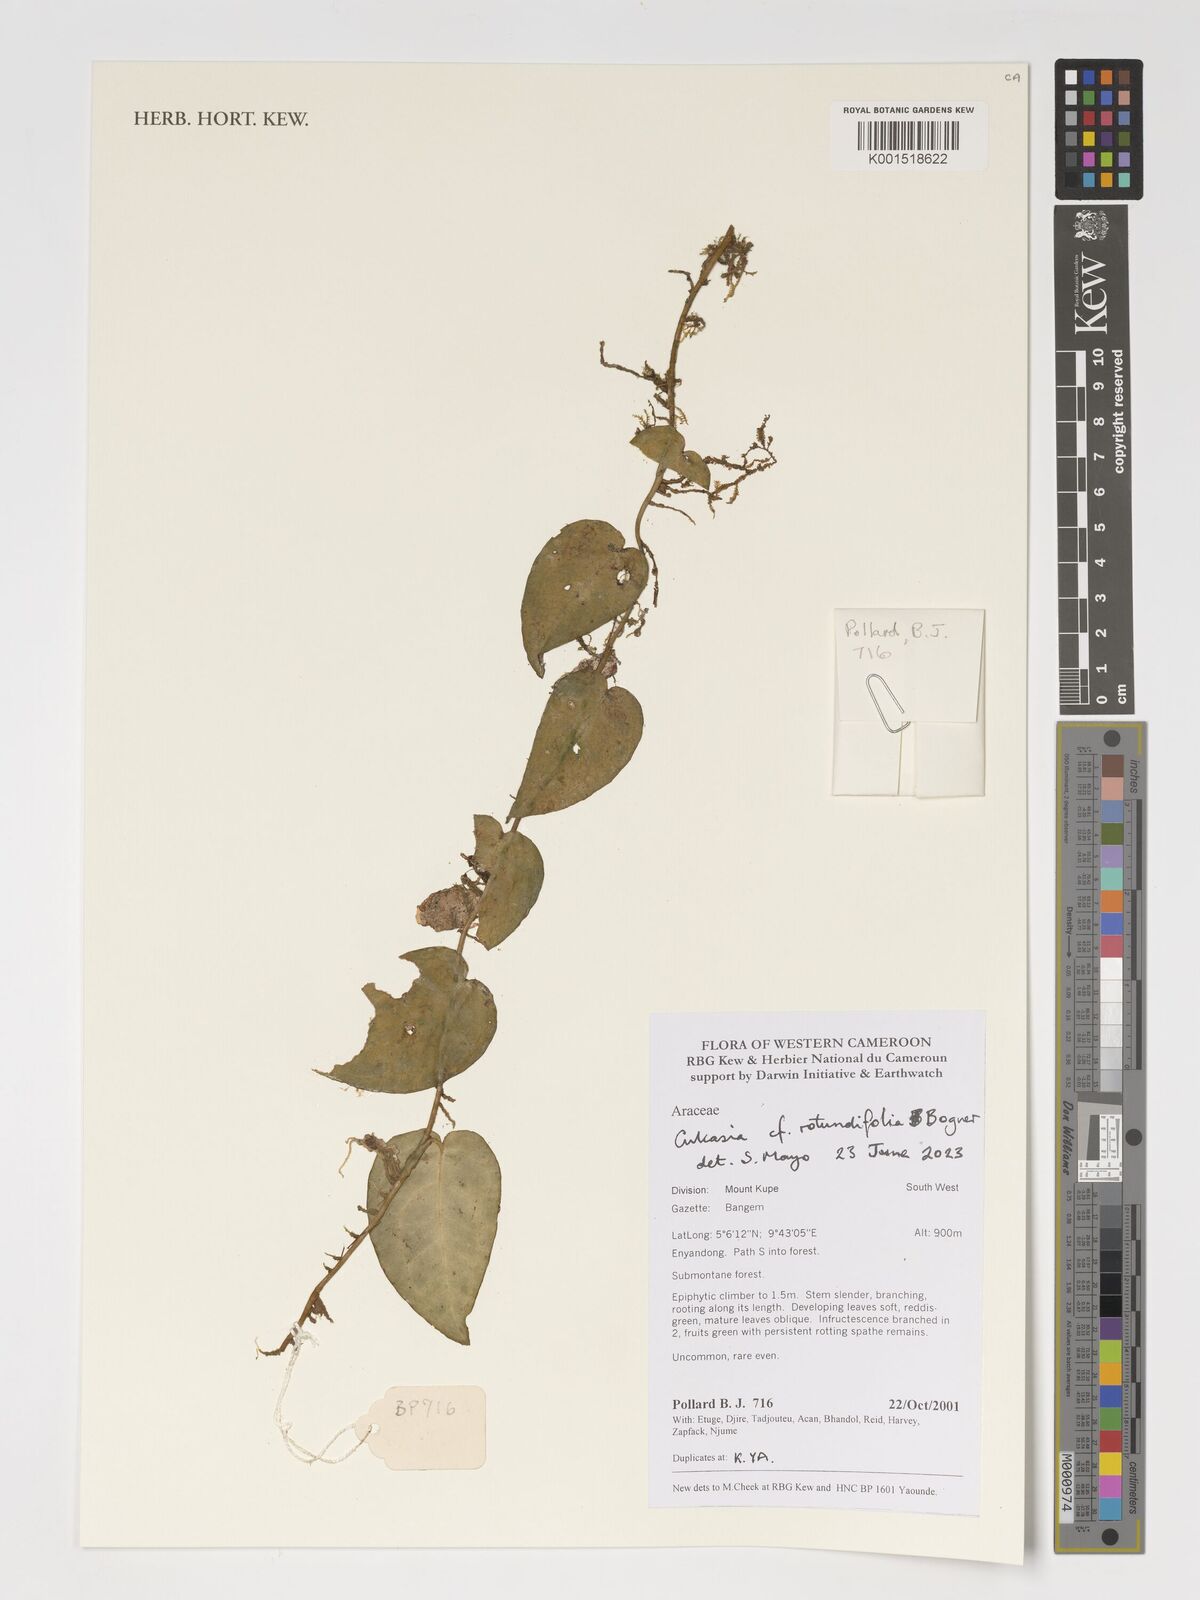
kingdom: Plantae
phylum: Tracheophyta
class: Liliopsida
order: Alismatales
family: Araceae
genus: Culcasia
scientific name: Culcasia rotundifolia
